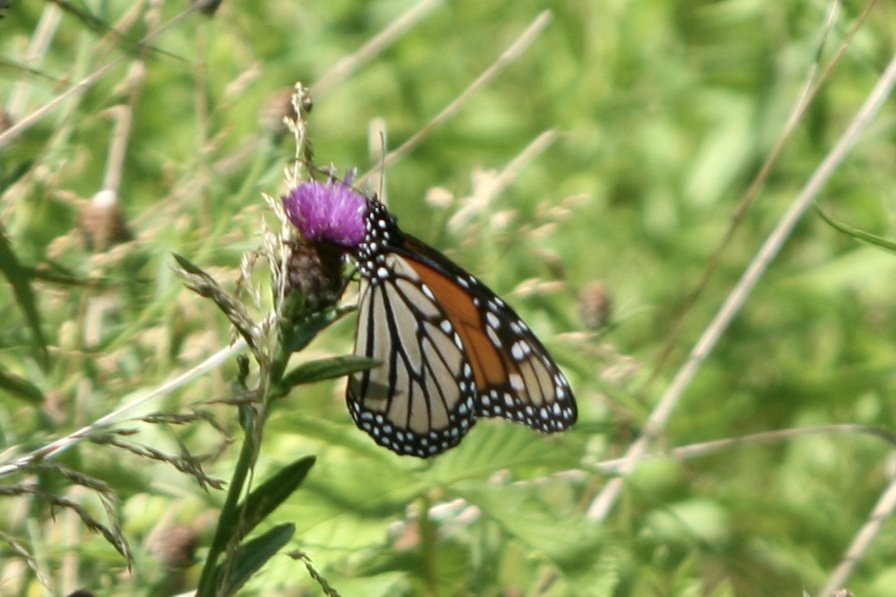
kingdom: Animalia
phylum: Arthropoda
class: Insecta
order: Lepidoptera
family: Nymphalidae
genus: Danaus
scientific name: Danaus plexippus
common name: Monarch
